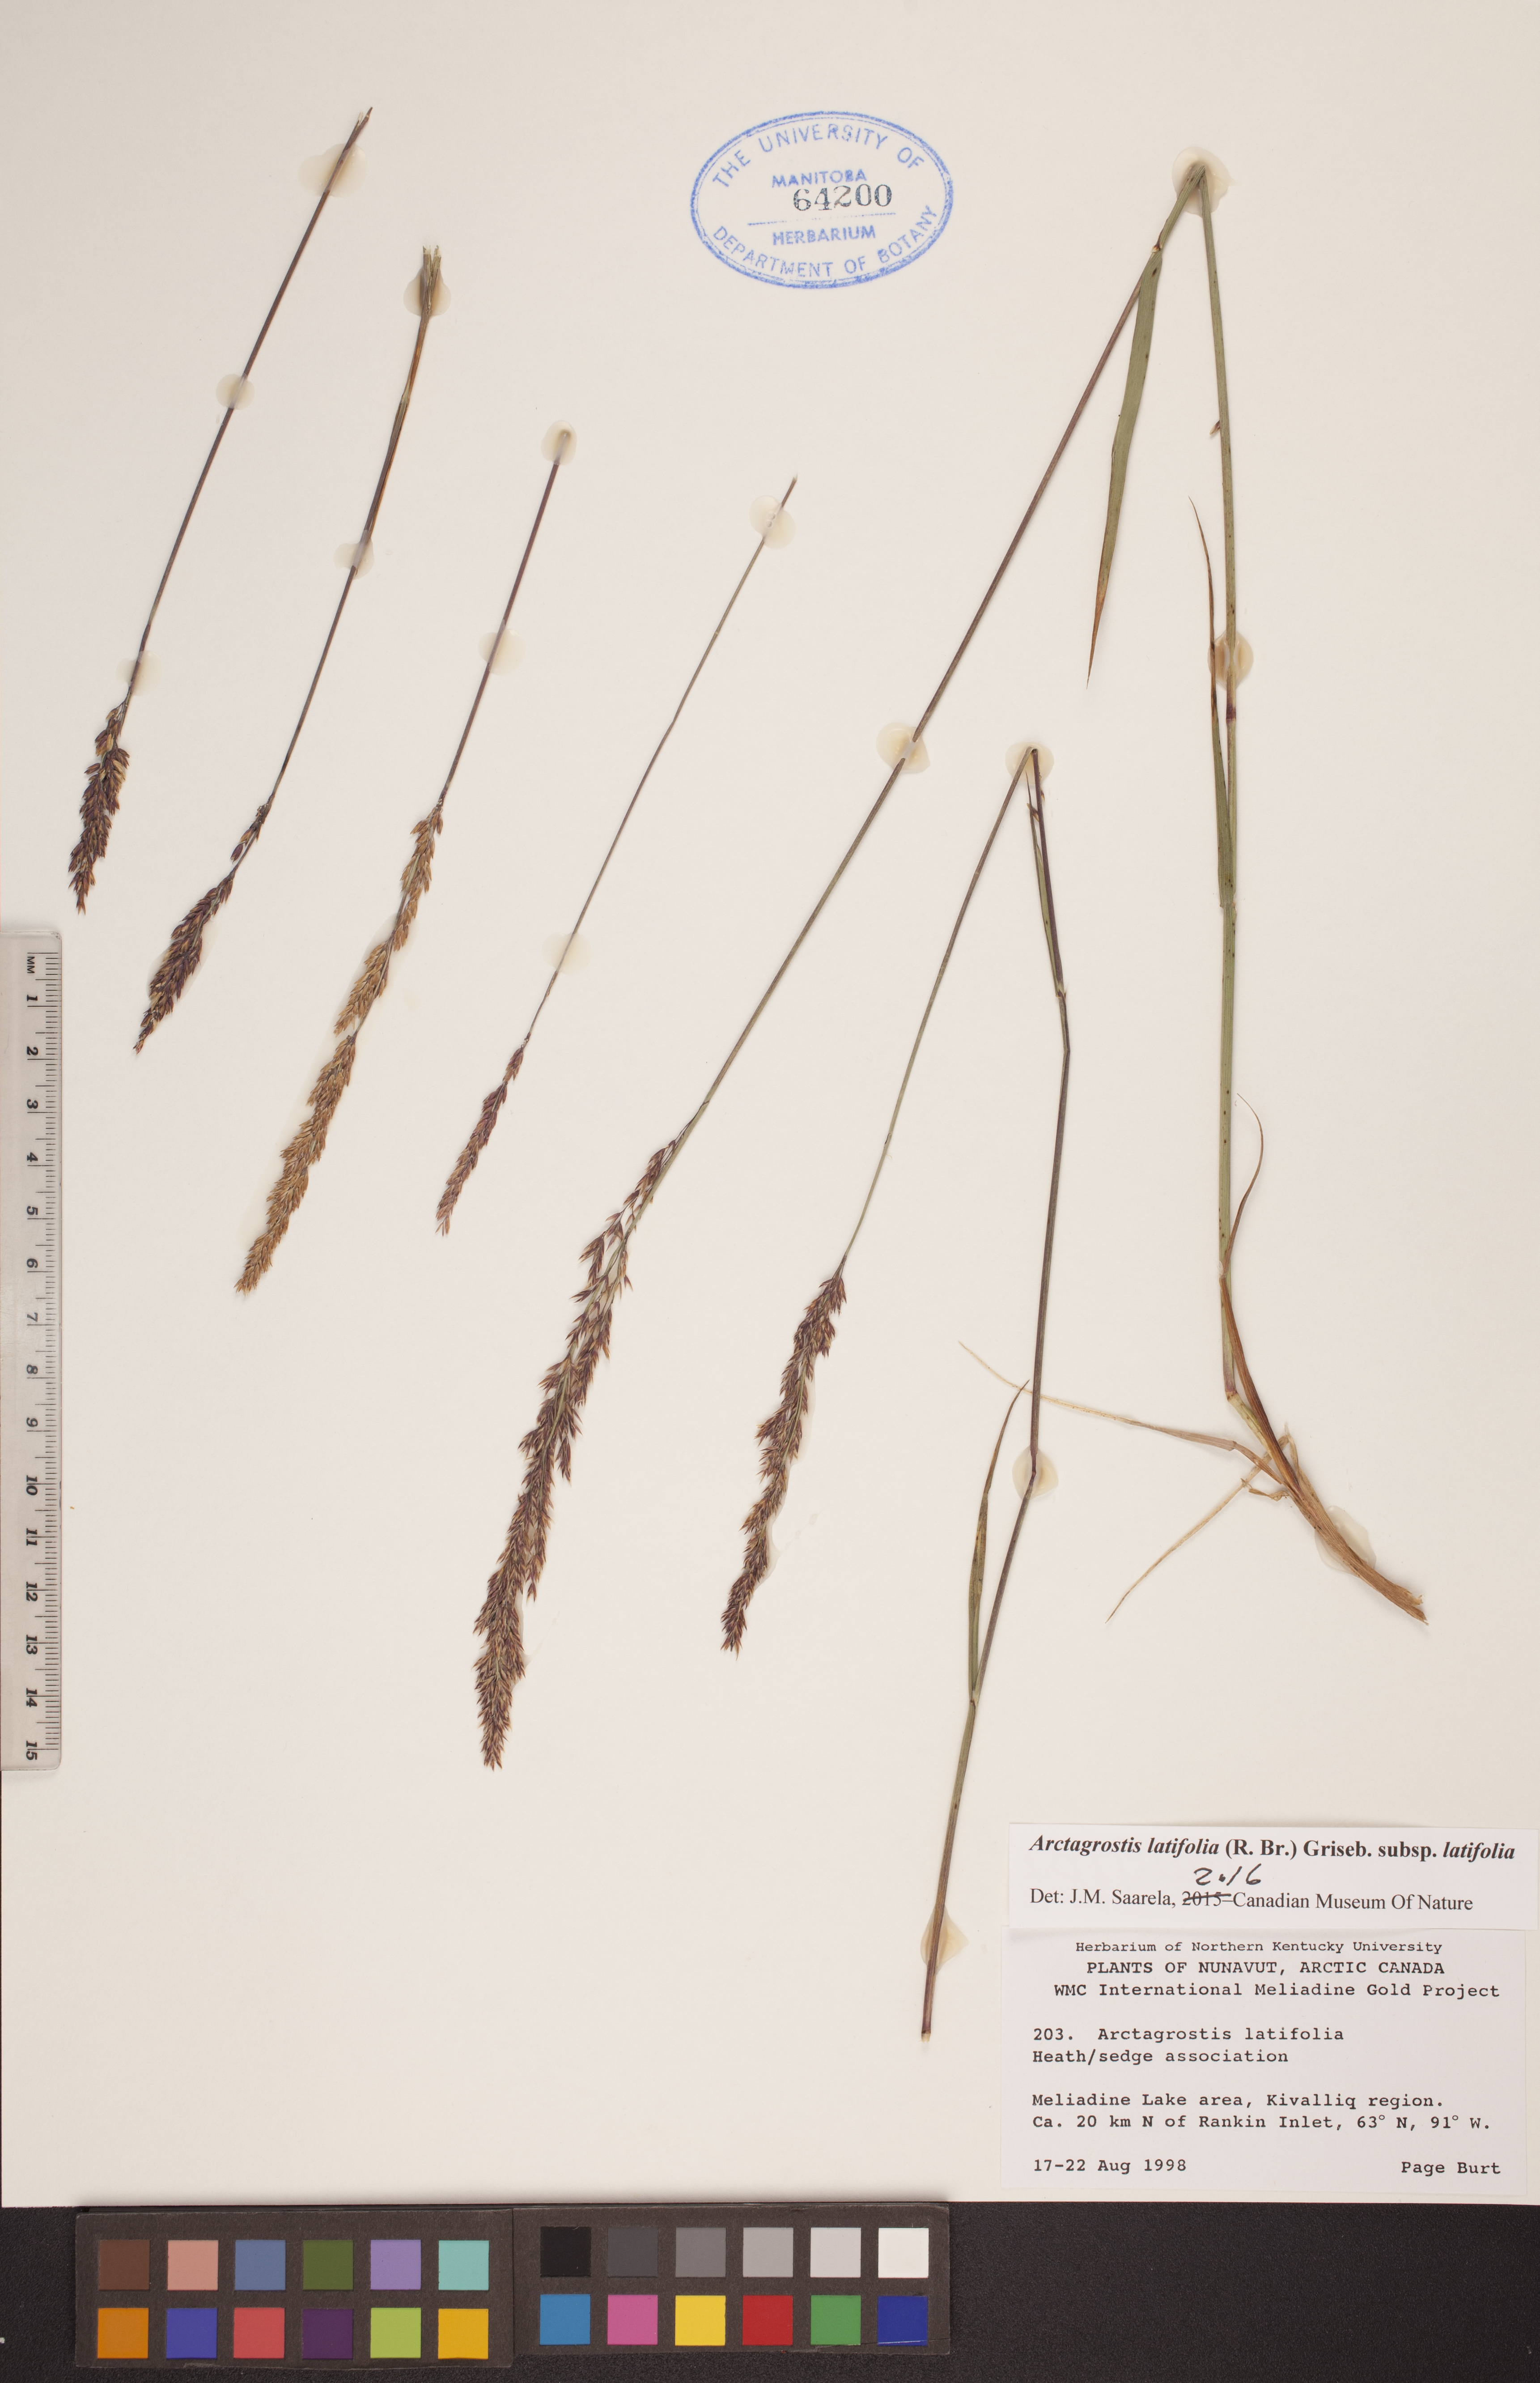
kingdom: Plantae
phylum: Tracheophyta
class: Liliopsida
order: Poales
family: Poaceae
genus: Arctagrostis
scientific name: Arctagrostis latifolia
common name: Arctic grass
